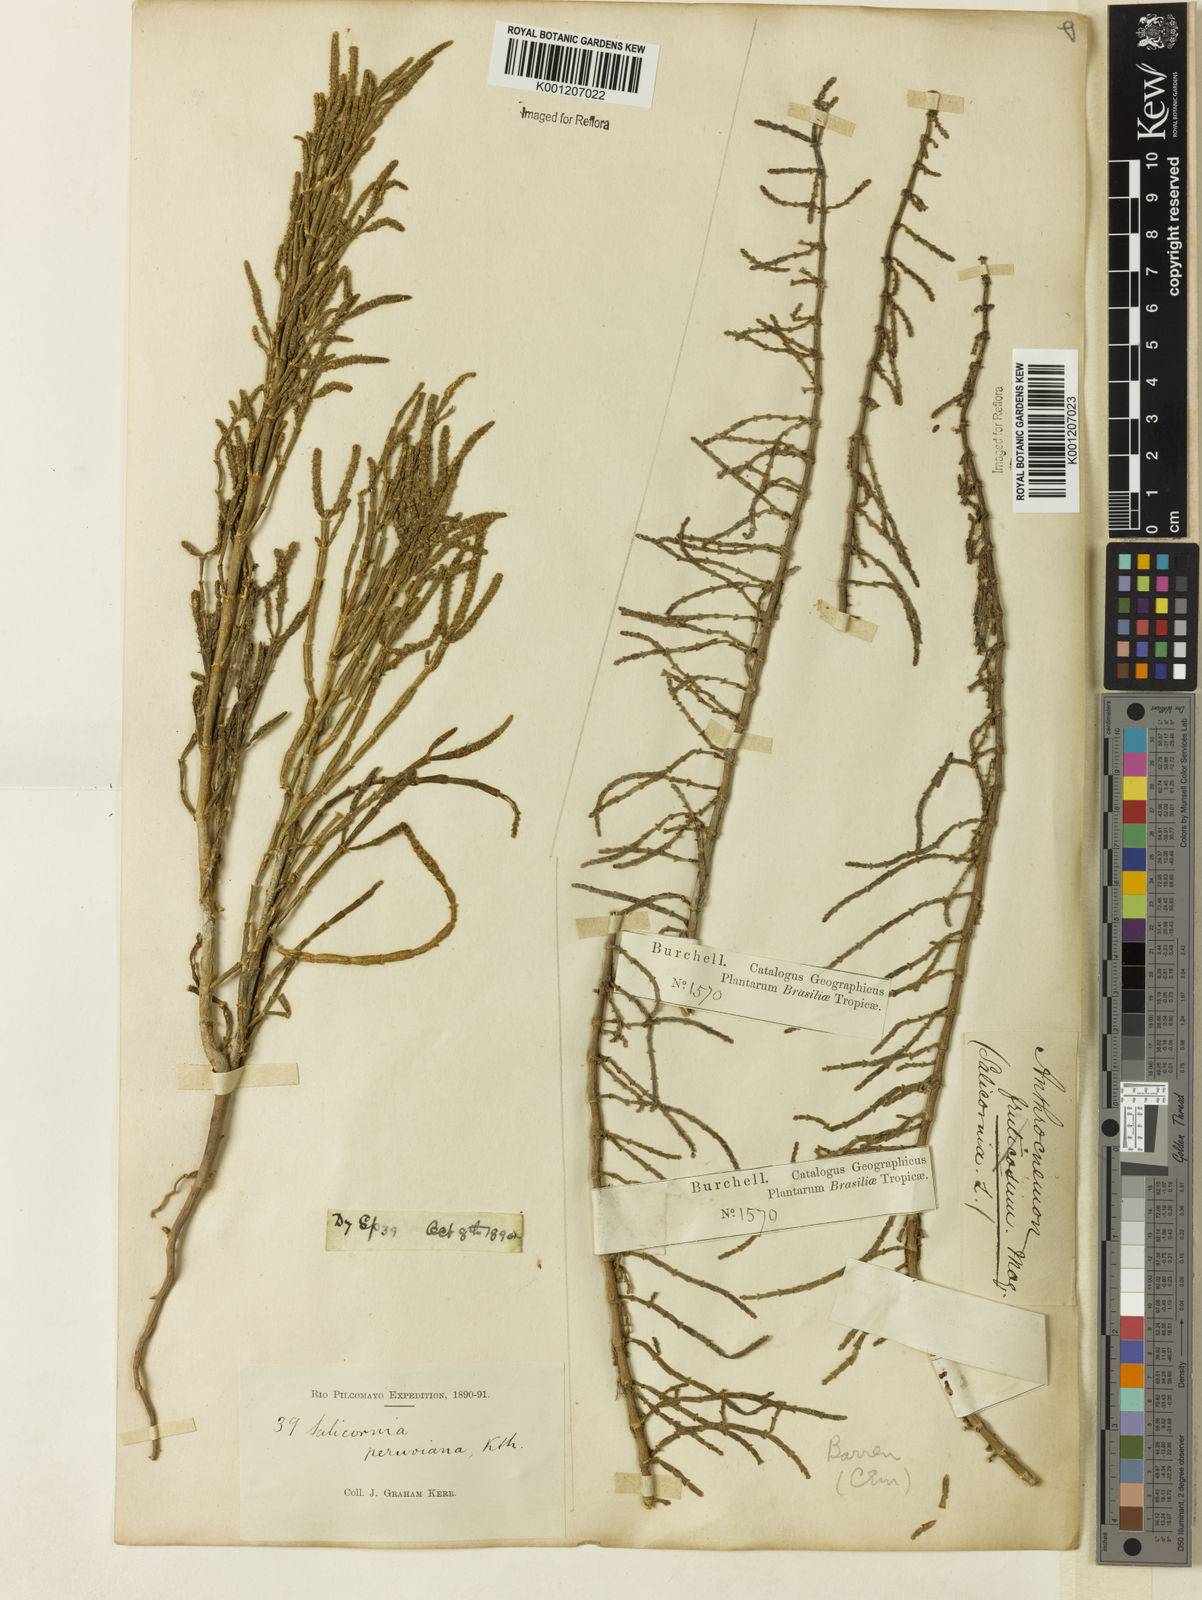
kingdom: Plantae
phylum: Tracheophyta
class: Magnoliopsida
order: Caryophyllales
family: Amaranthaceae
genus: Salicornia
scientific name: Salicornia
